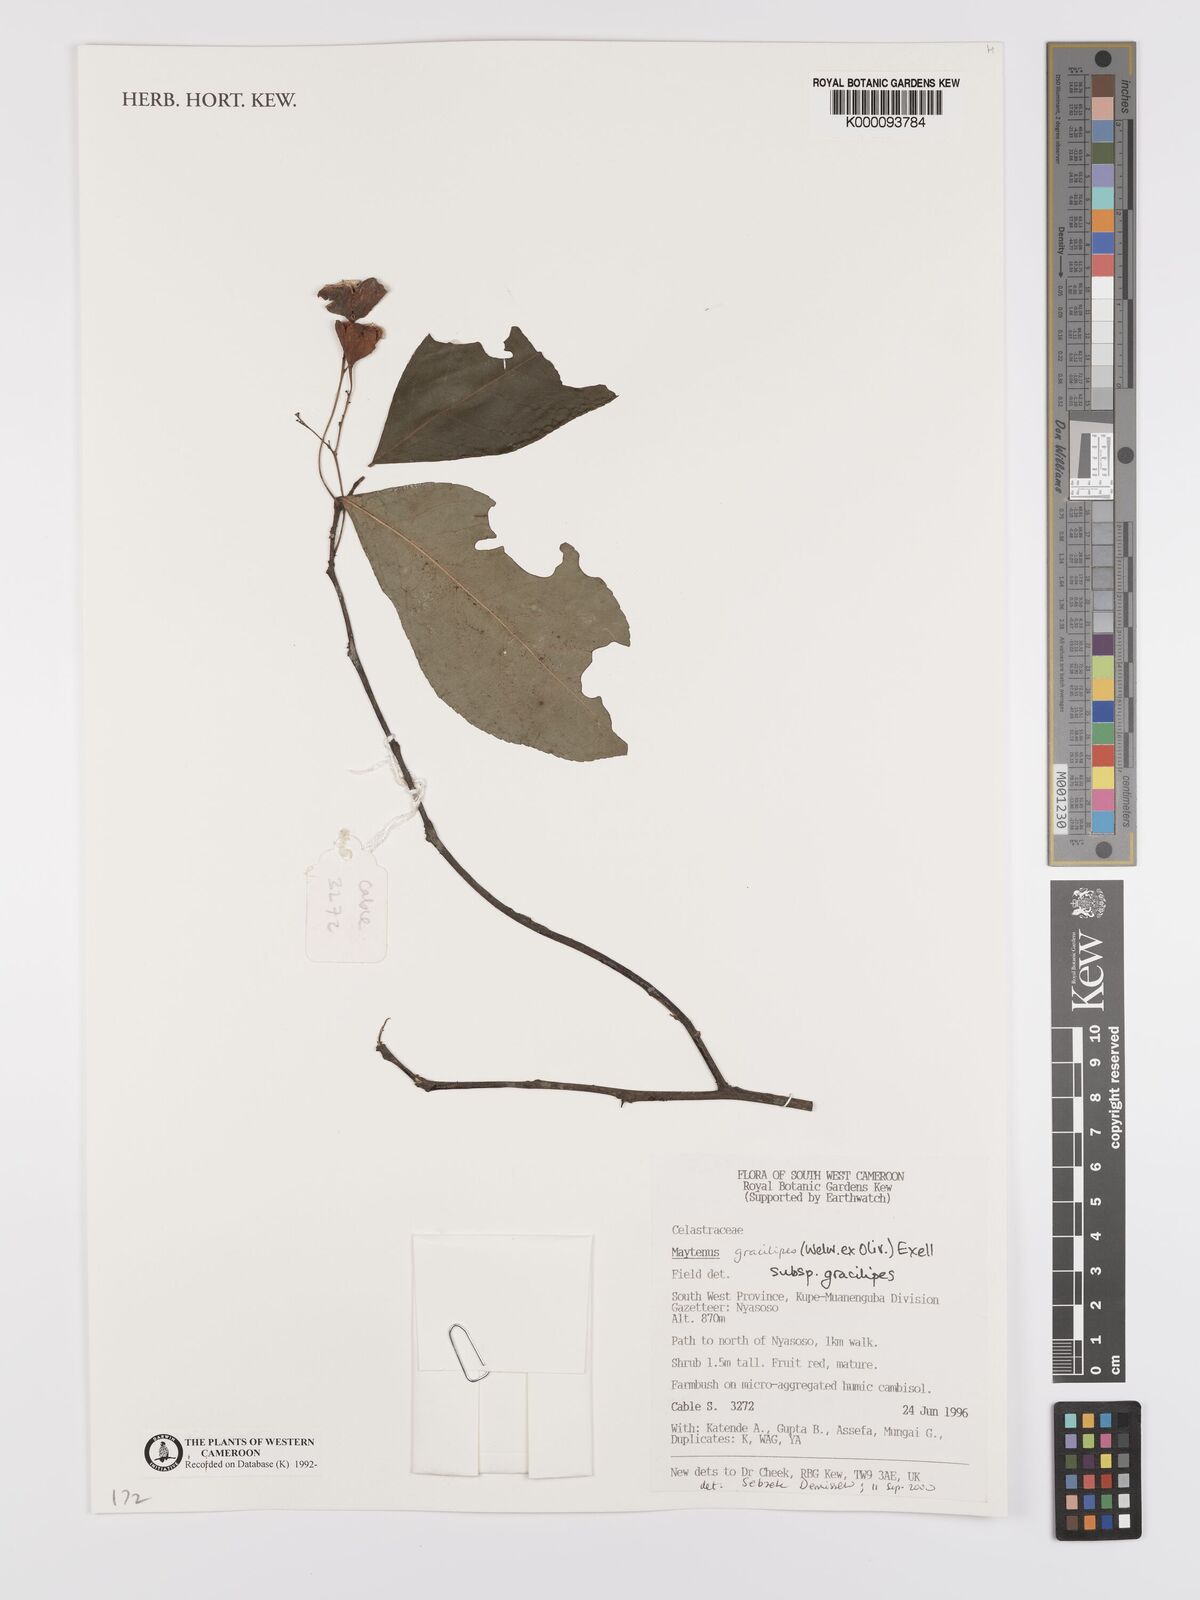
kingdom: Plantae
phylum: Tracheophyta
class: Magnoliopsida
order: Celastrales
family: Celastraceae
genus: Gymnosporia
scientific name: Gymnosporia gracilipes
